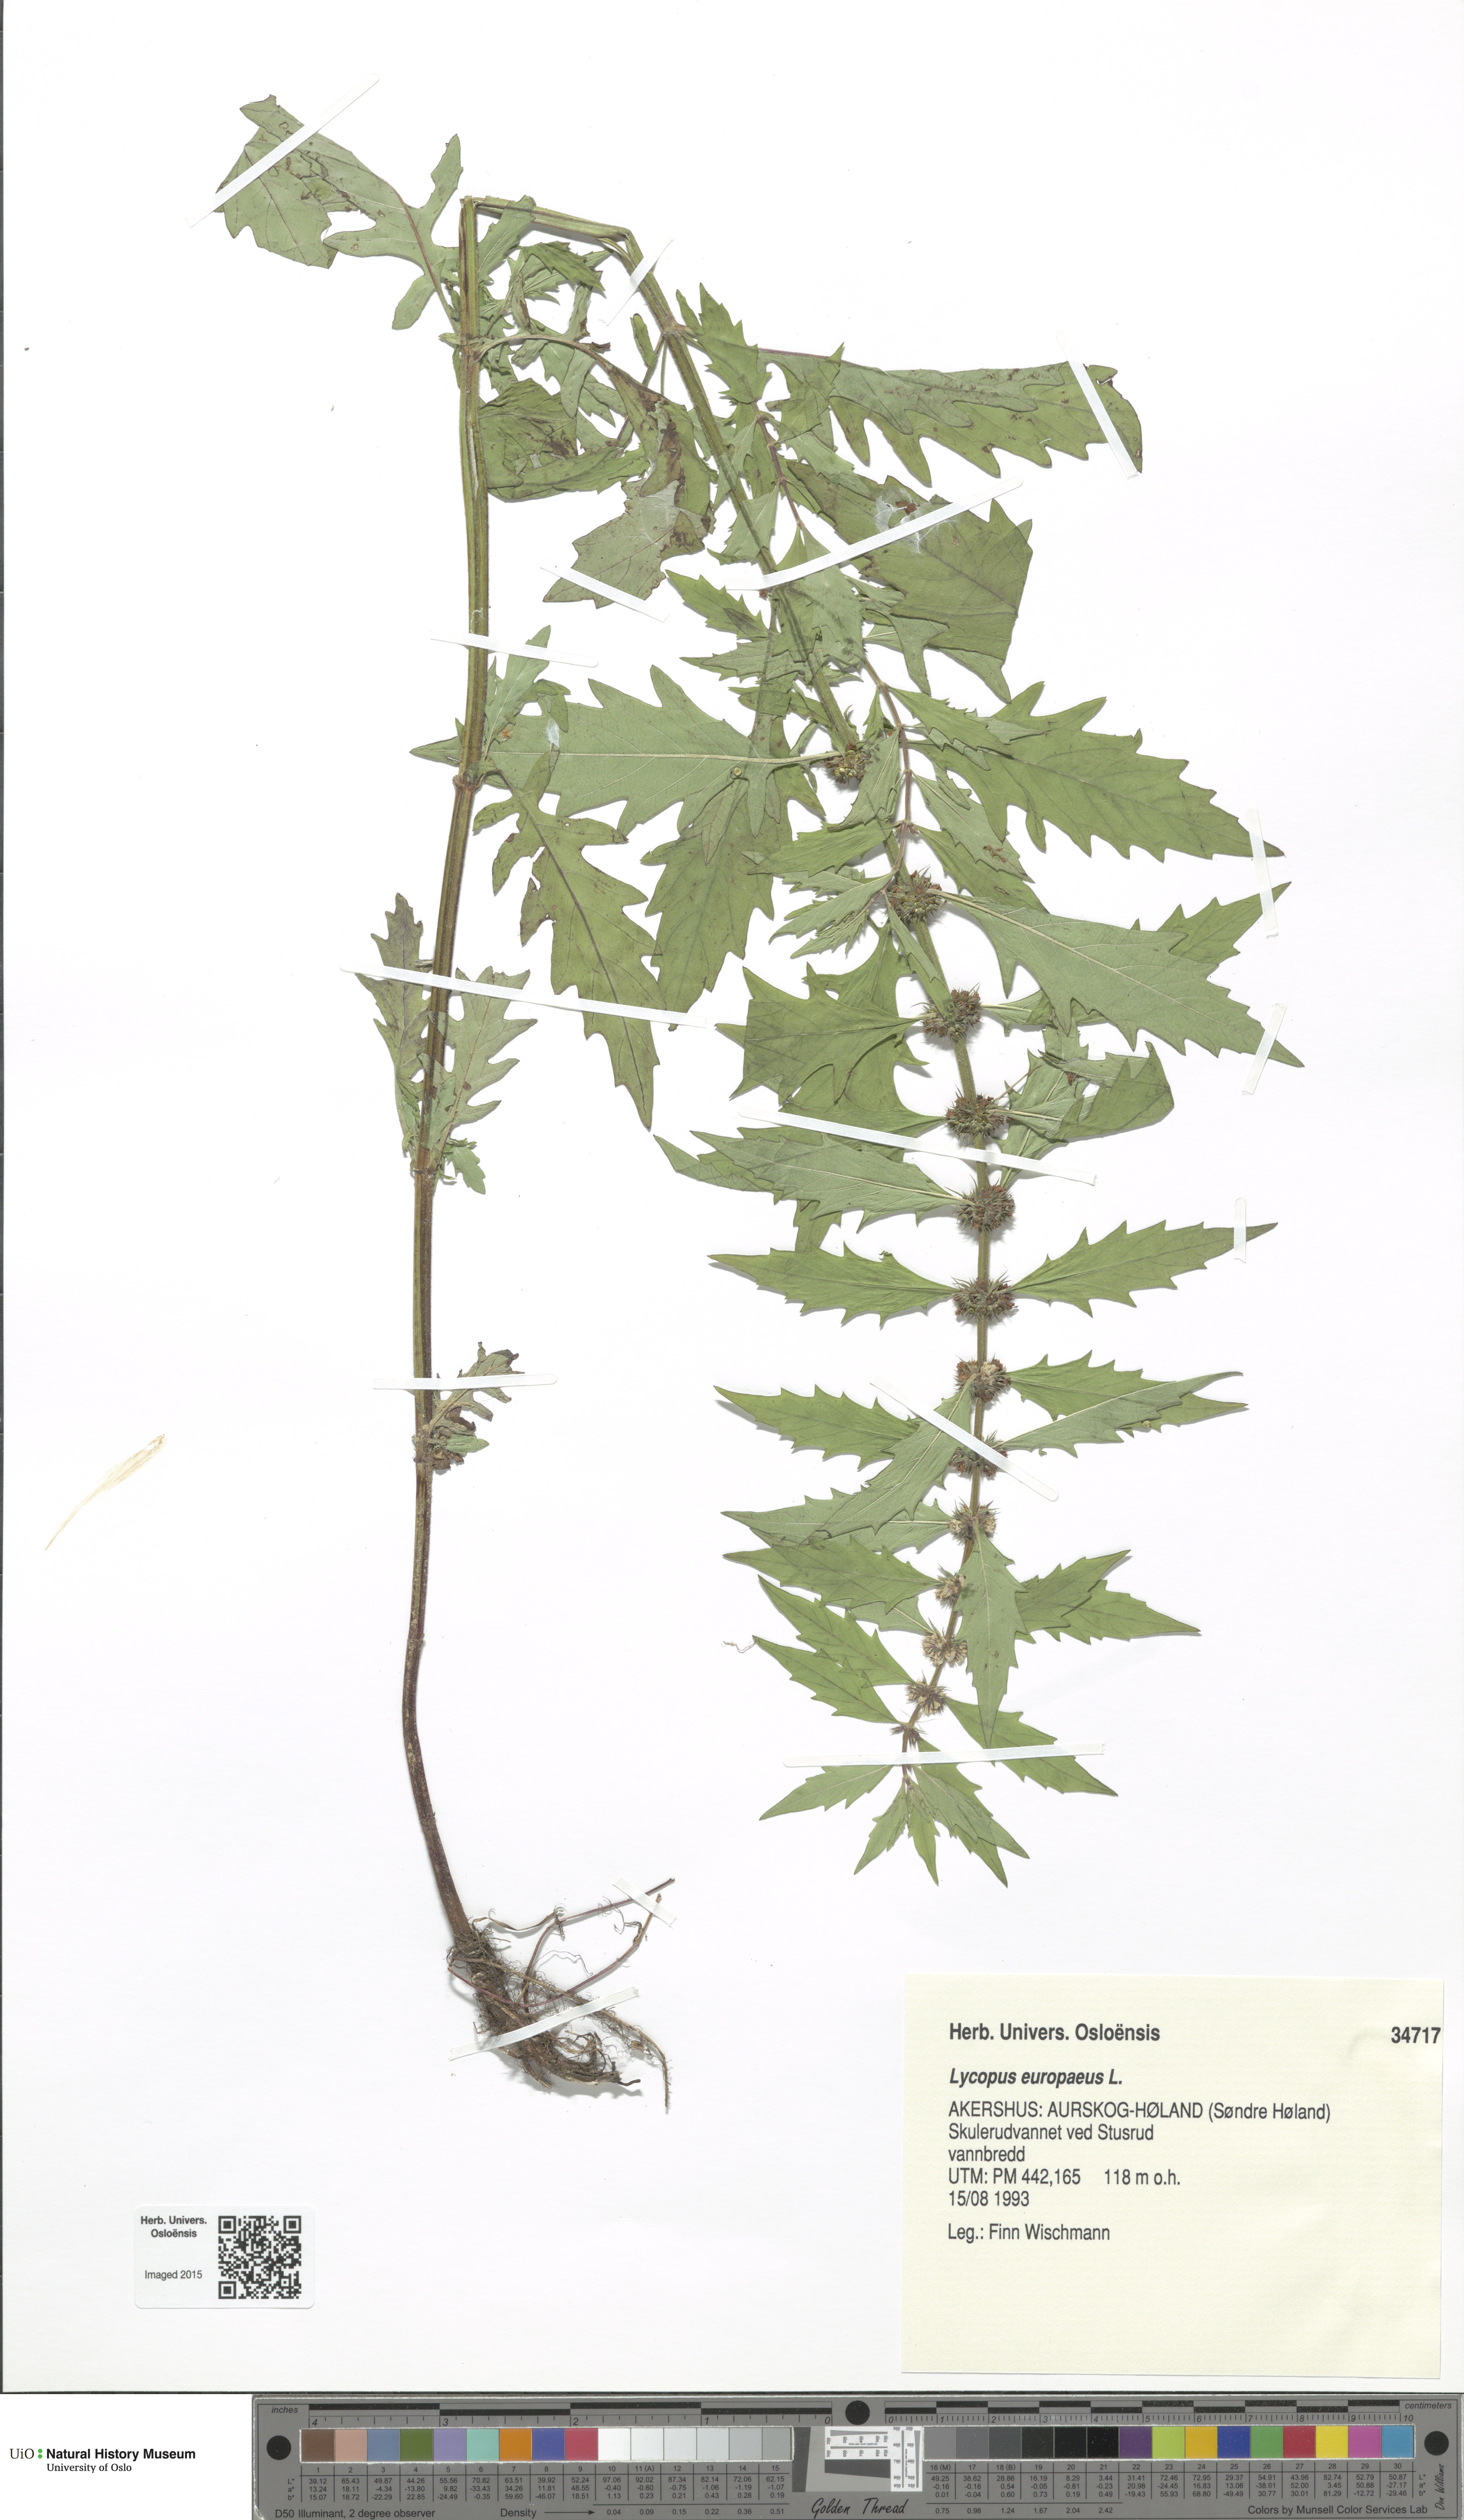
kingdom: Plantae
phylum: Tracheophyta
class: Magnoliopsida
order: Lamiales
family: Lamiaceae
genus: Lycopus
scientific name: Lycopus europaeus
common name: European bugleweed
